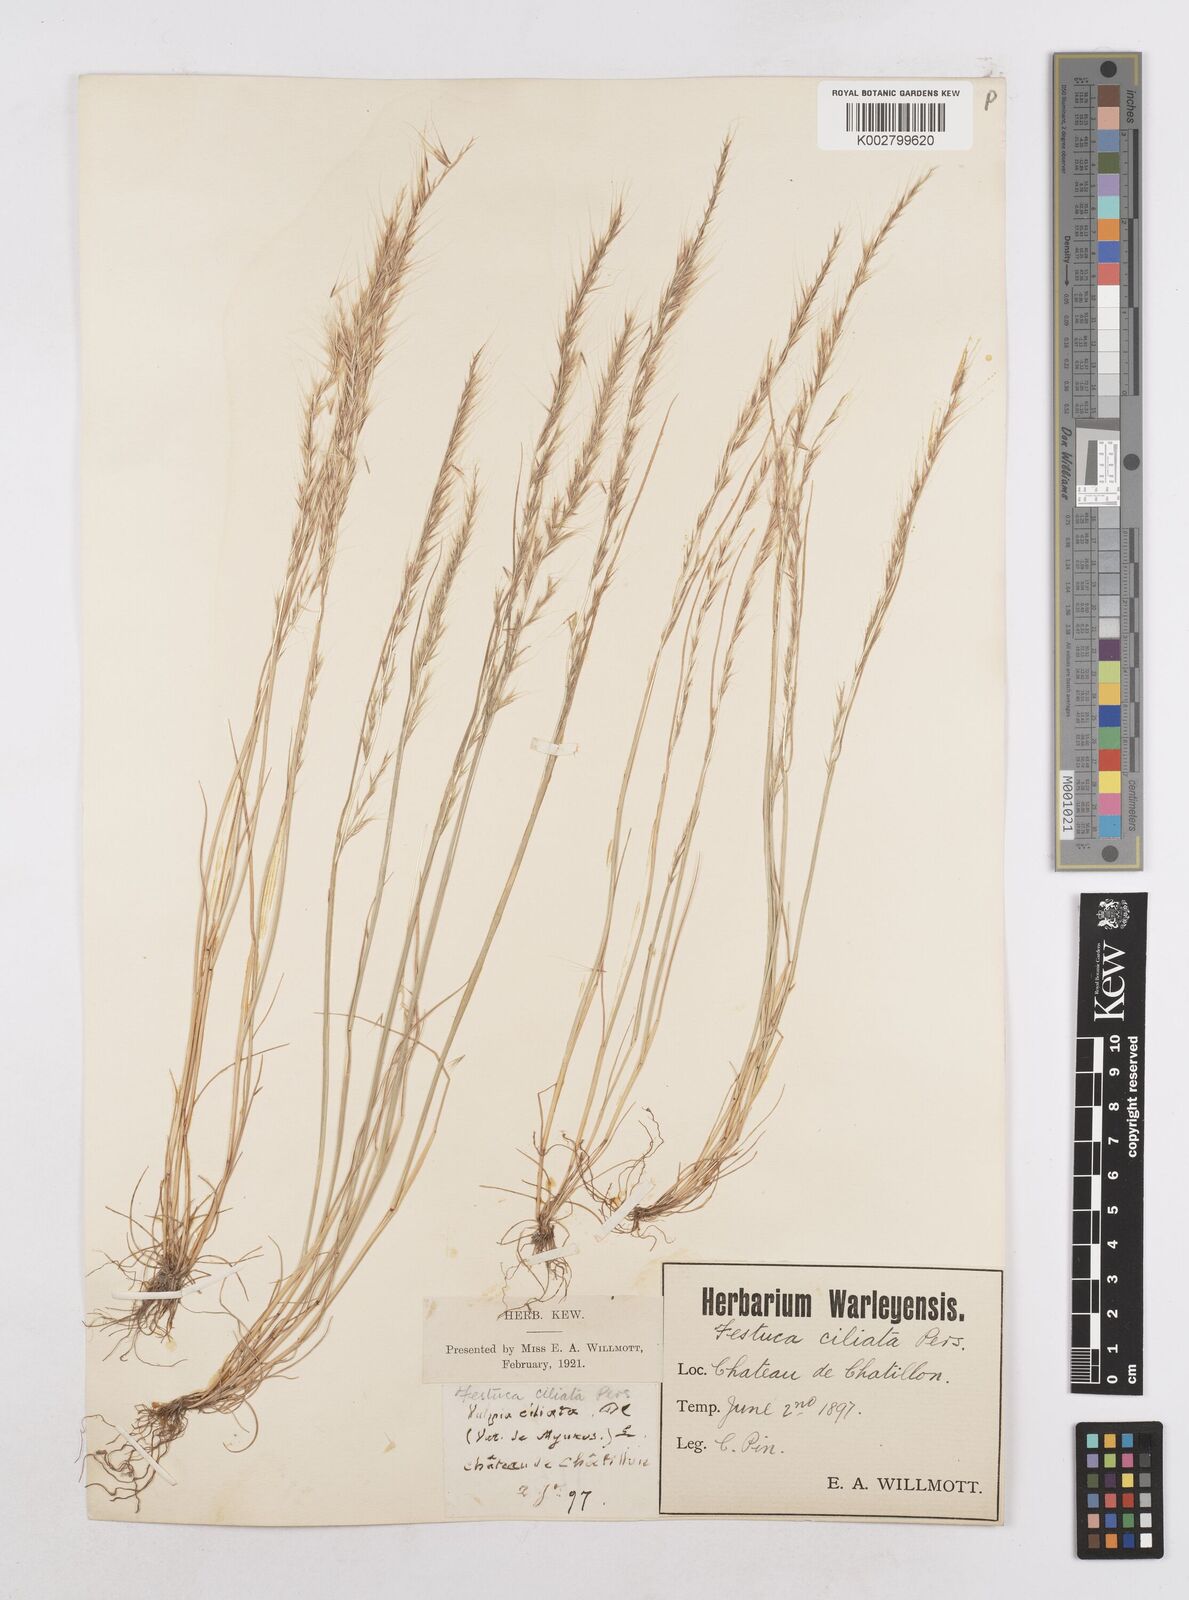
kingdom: Plantae
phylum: Tracheophyta
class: Liliopsida
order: Poales
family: Poaceae
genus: Festuca
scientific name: Festuca
